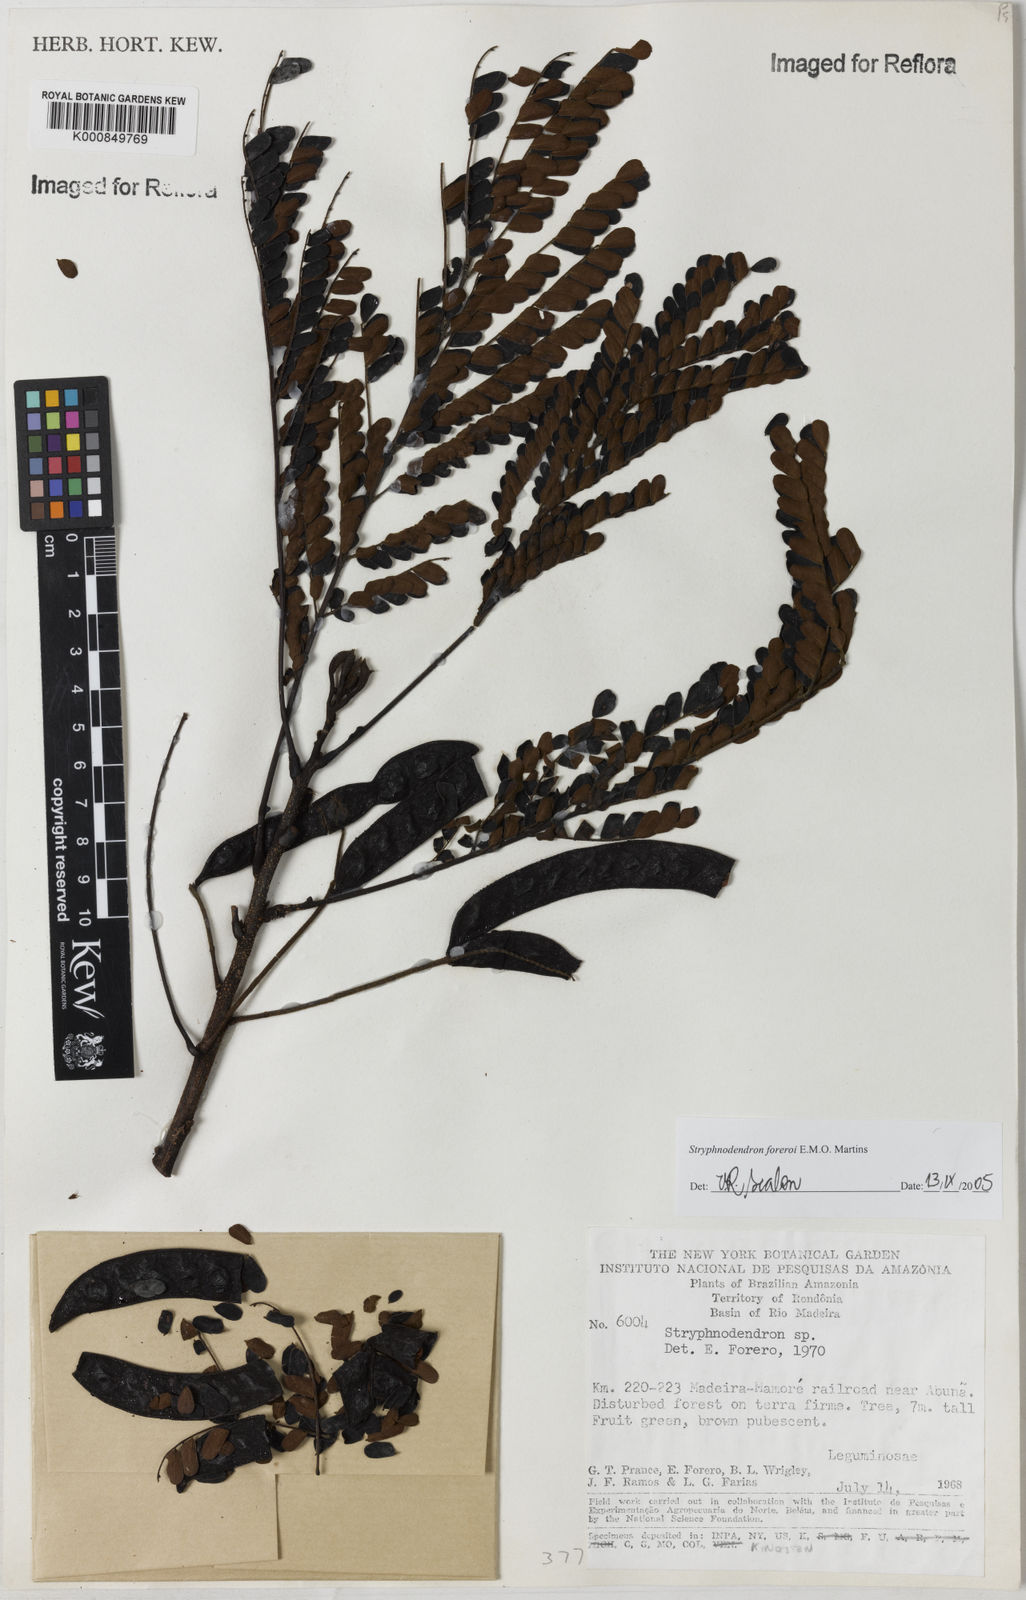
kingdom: Plantae
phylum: Tracheophyta
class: Magnoliopsida
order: Fabales
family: Fabaceae
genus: Stryphnodendron
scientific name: Stryphnodendron foreroi
